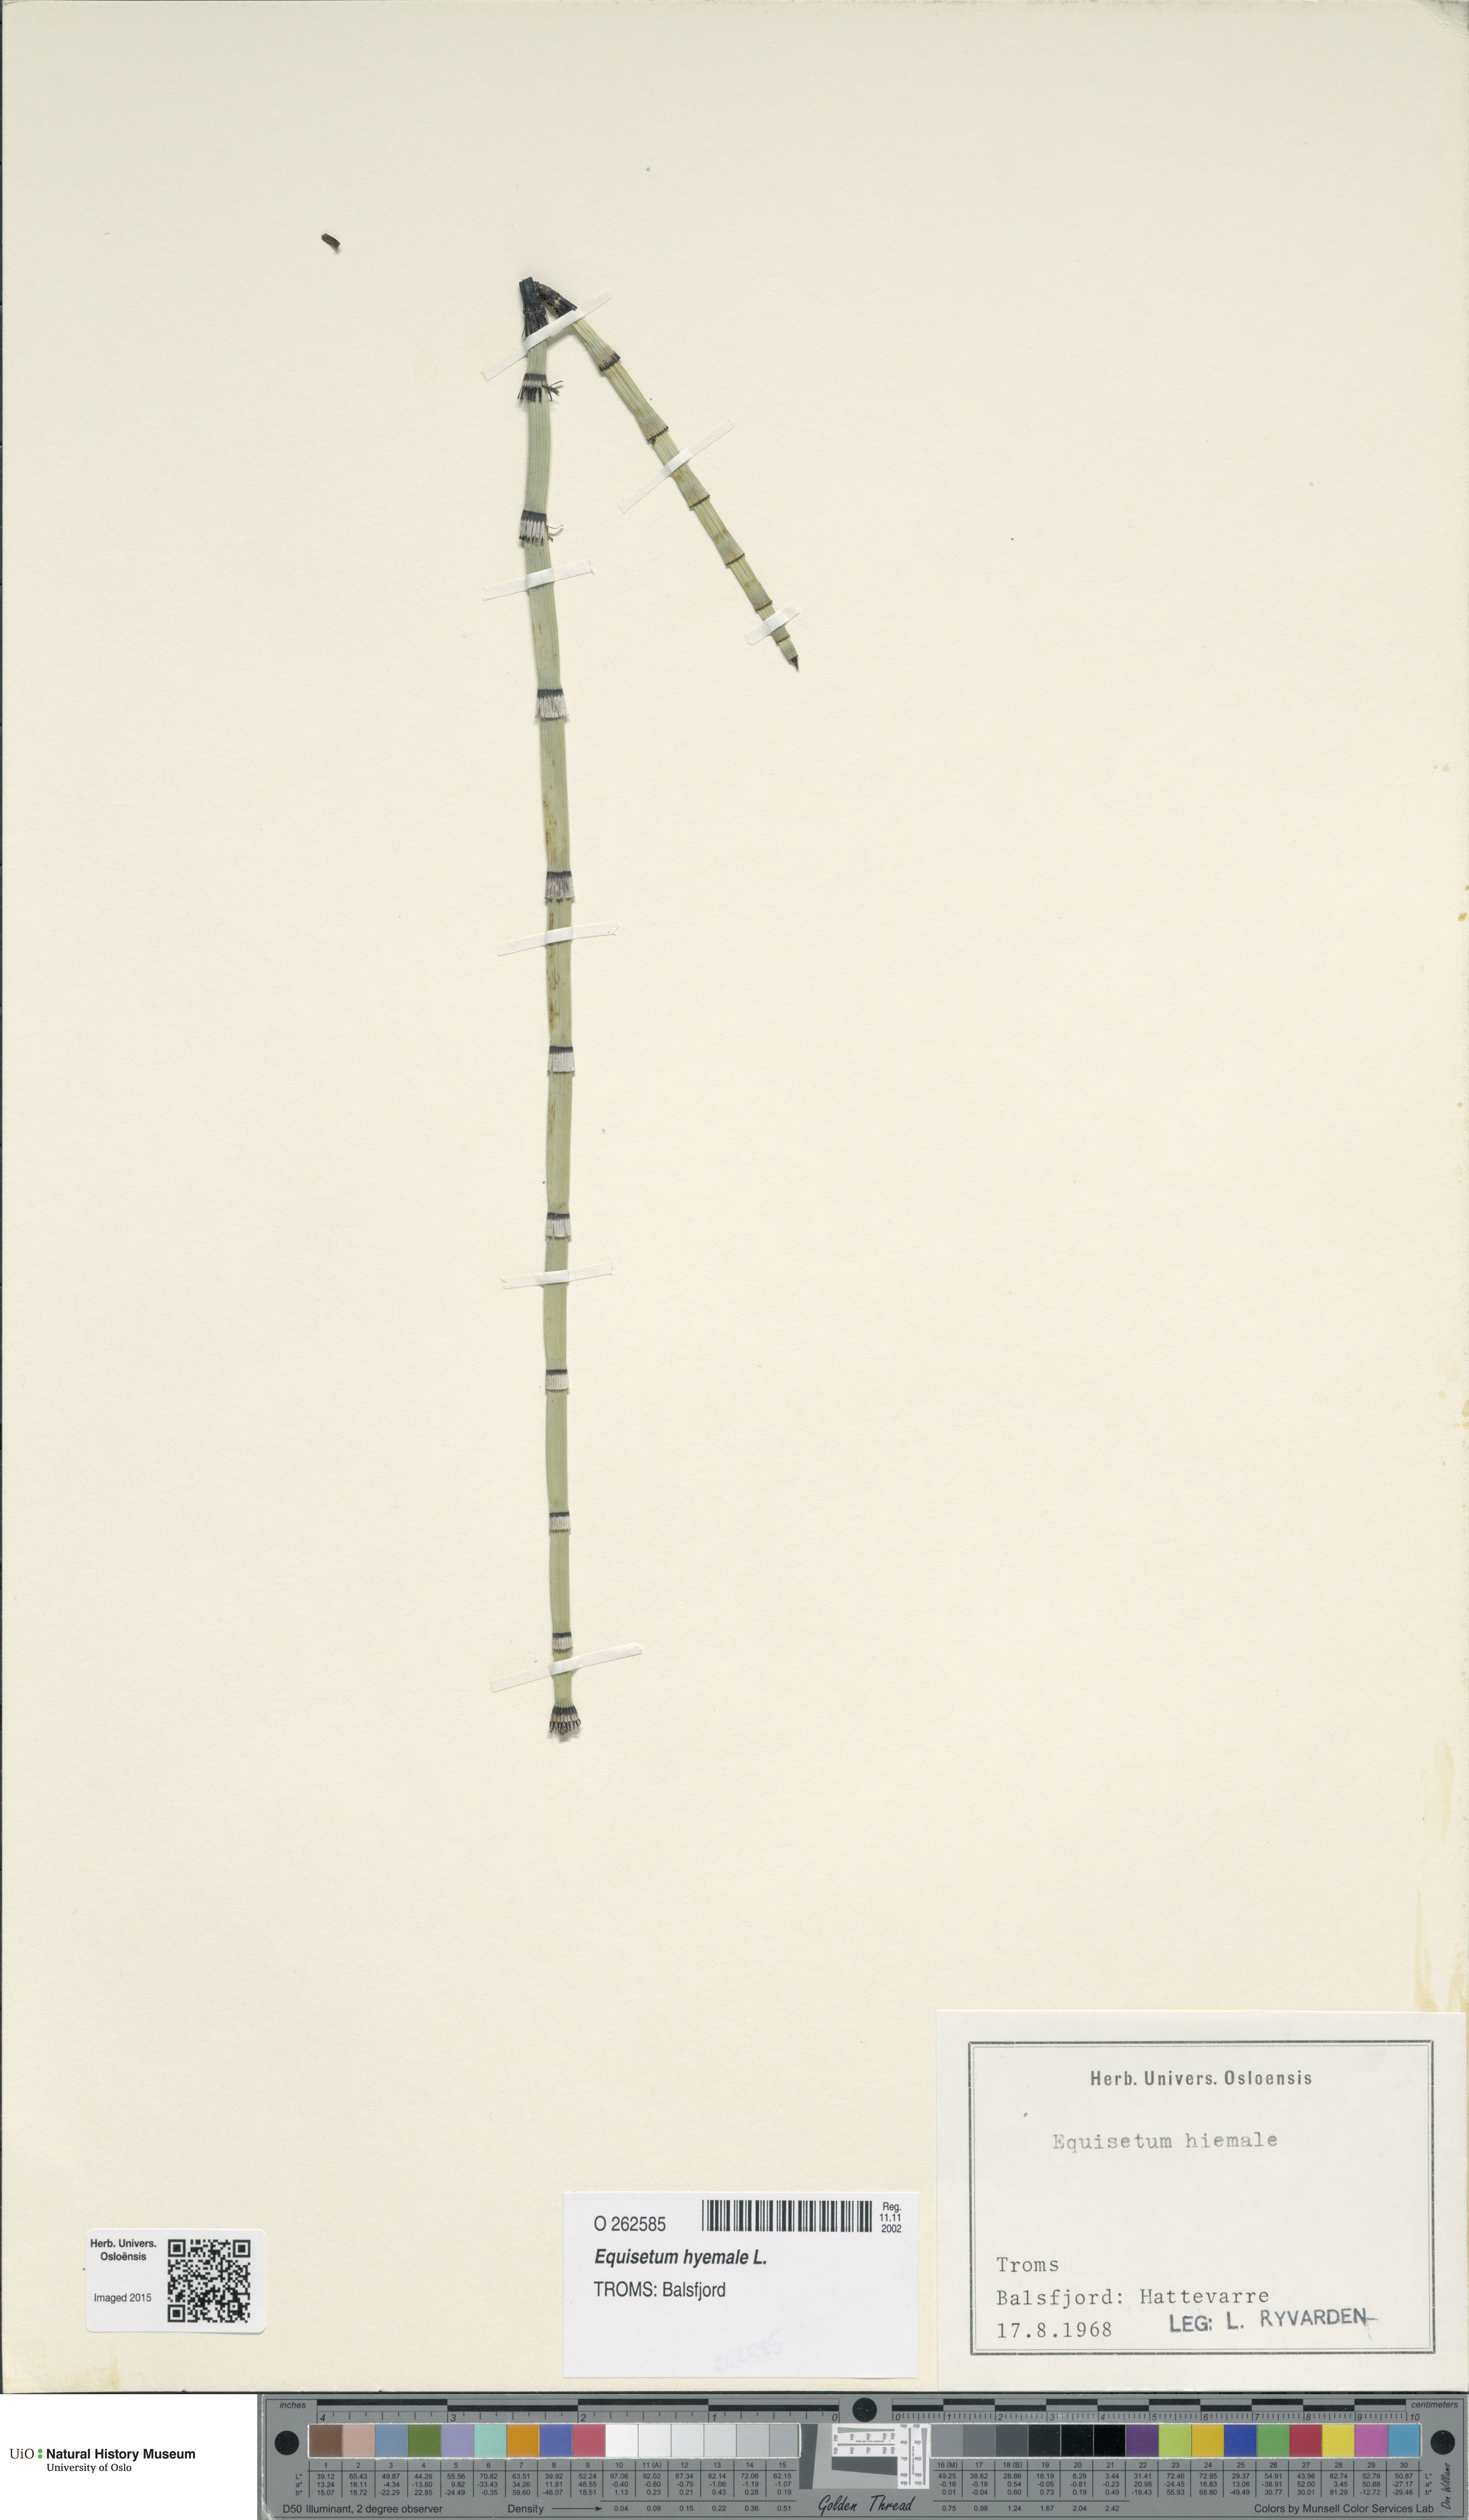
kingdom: Plantae
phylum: Tracheophyta
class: Polypodiopsida
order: Equisetales
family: Equisetaceae
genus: Equisetum
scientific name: Equisetum hyemale
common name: Rough horsetail
